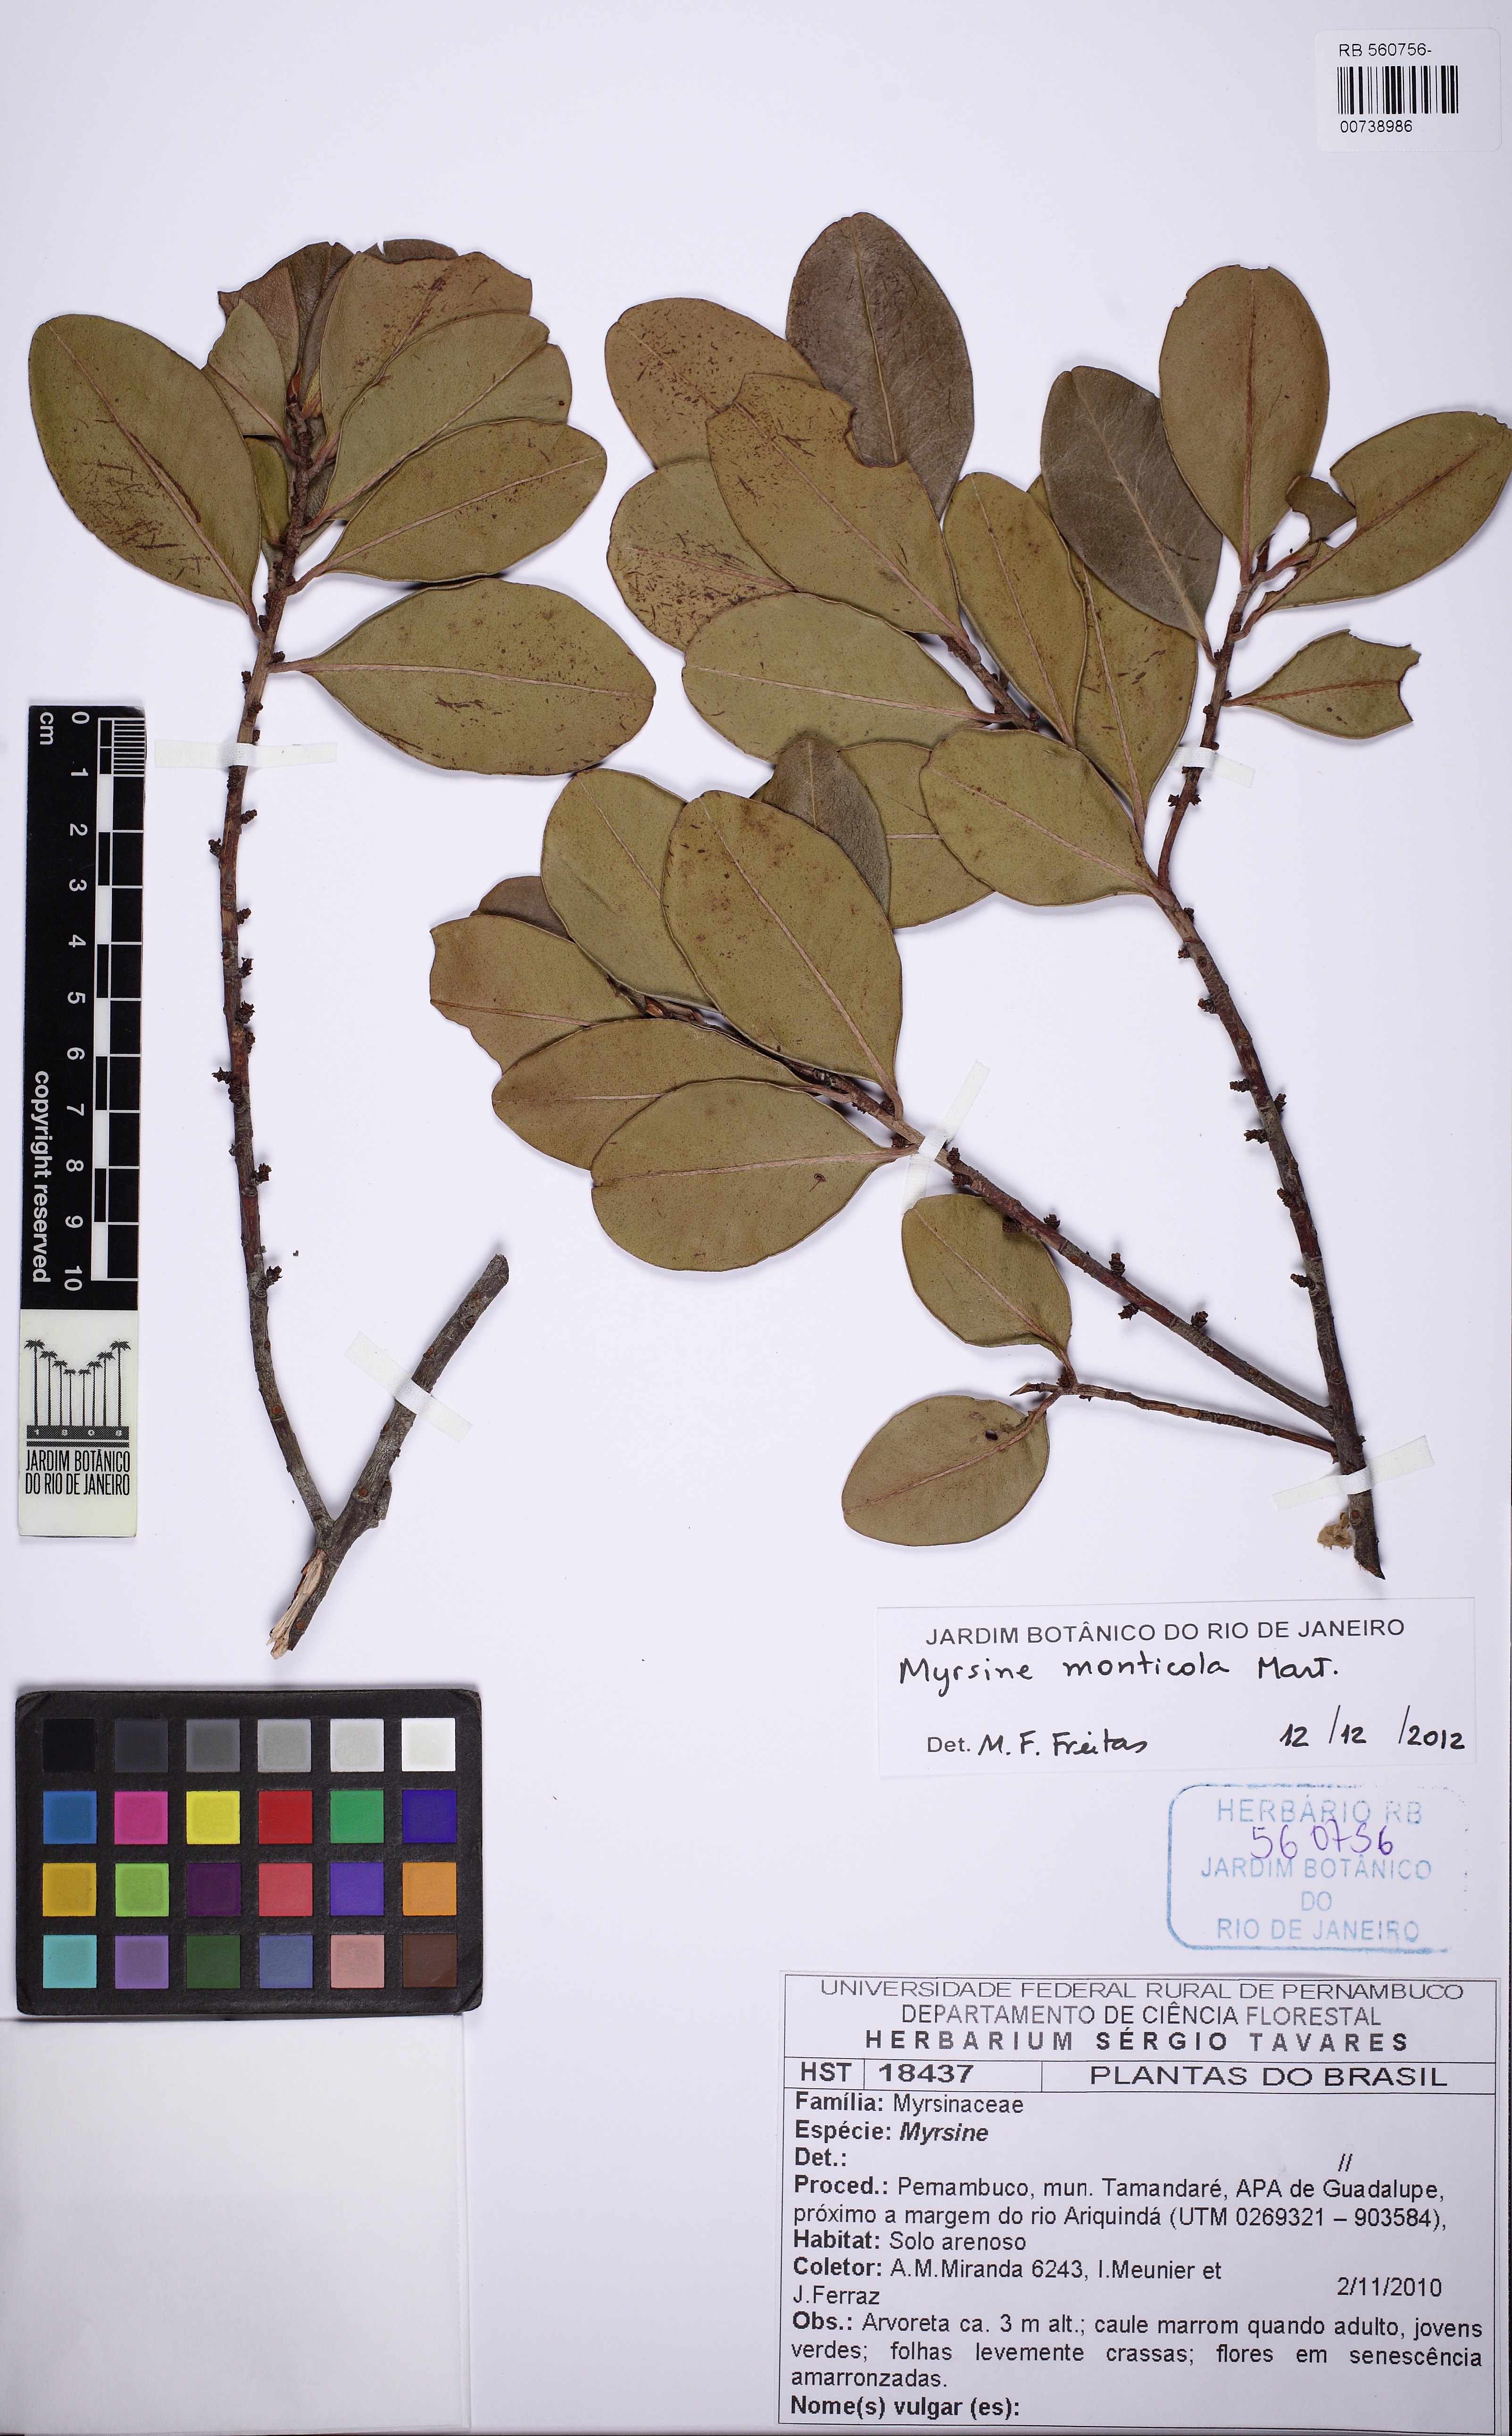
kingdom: Plantae
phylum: Tracheophyta
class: Magnoliopsida
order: Ericales
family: Primulaceae
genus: Myrsine
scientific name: Myrsine monticola
